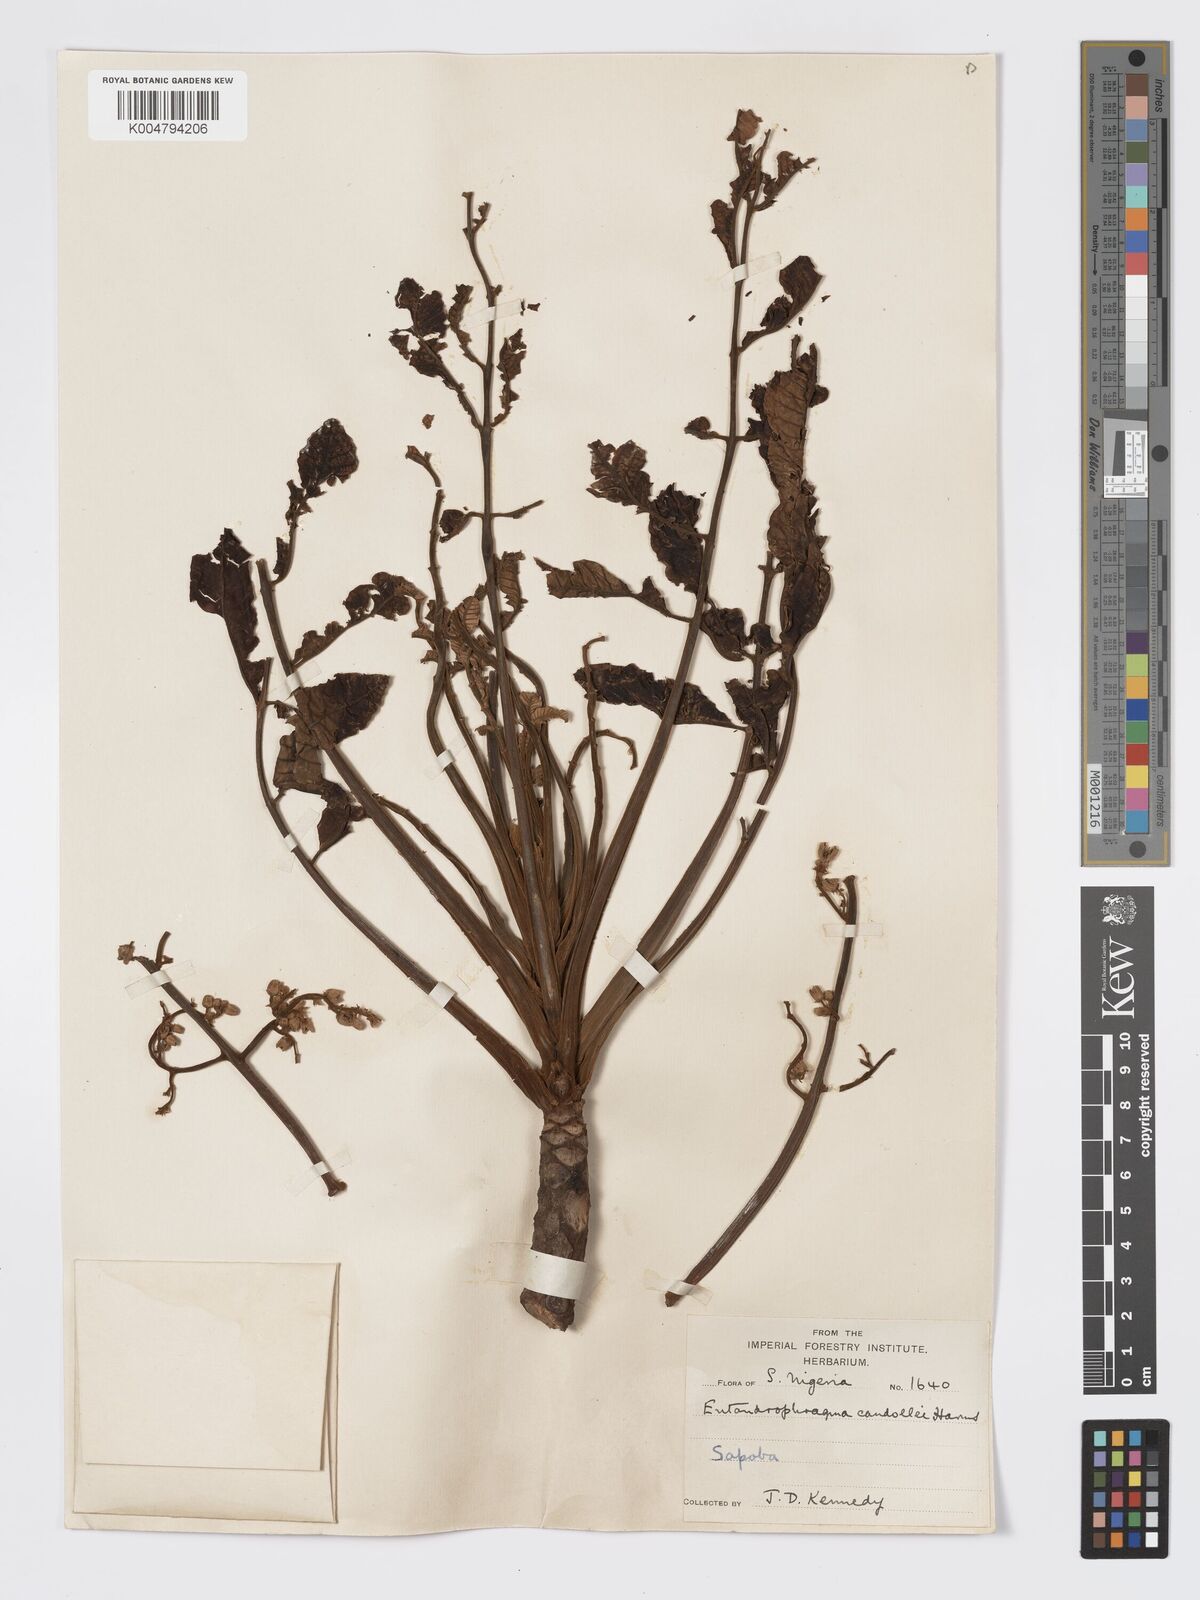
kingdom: Plantae
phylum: Tracheophyta
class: Magnoliopsida
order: Sapindales
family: Meliaceae
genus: Entandrophragma
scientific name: Entandrophragma candollei
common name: Cedar kokoti
